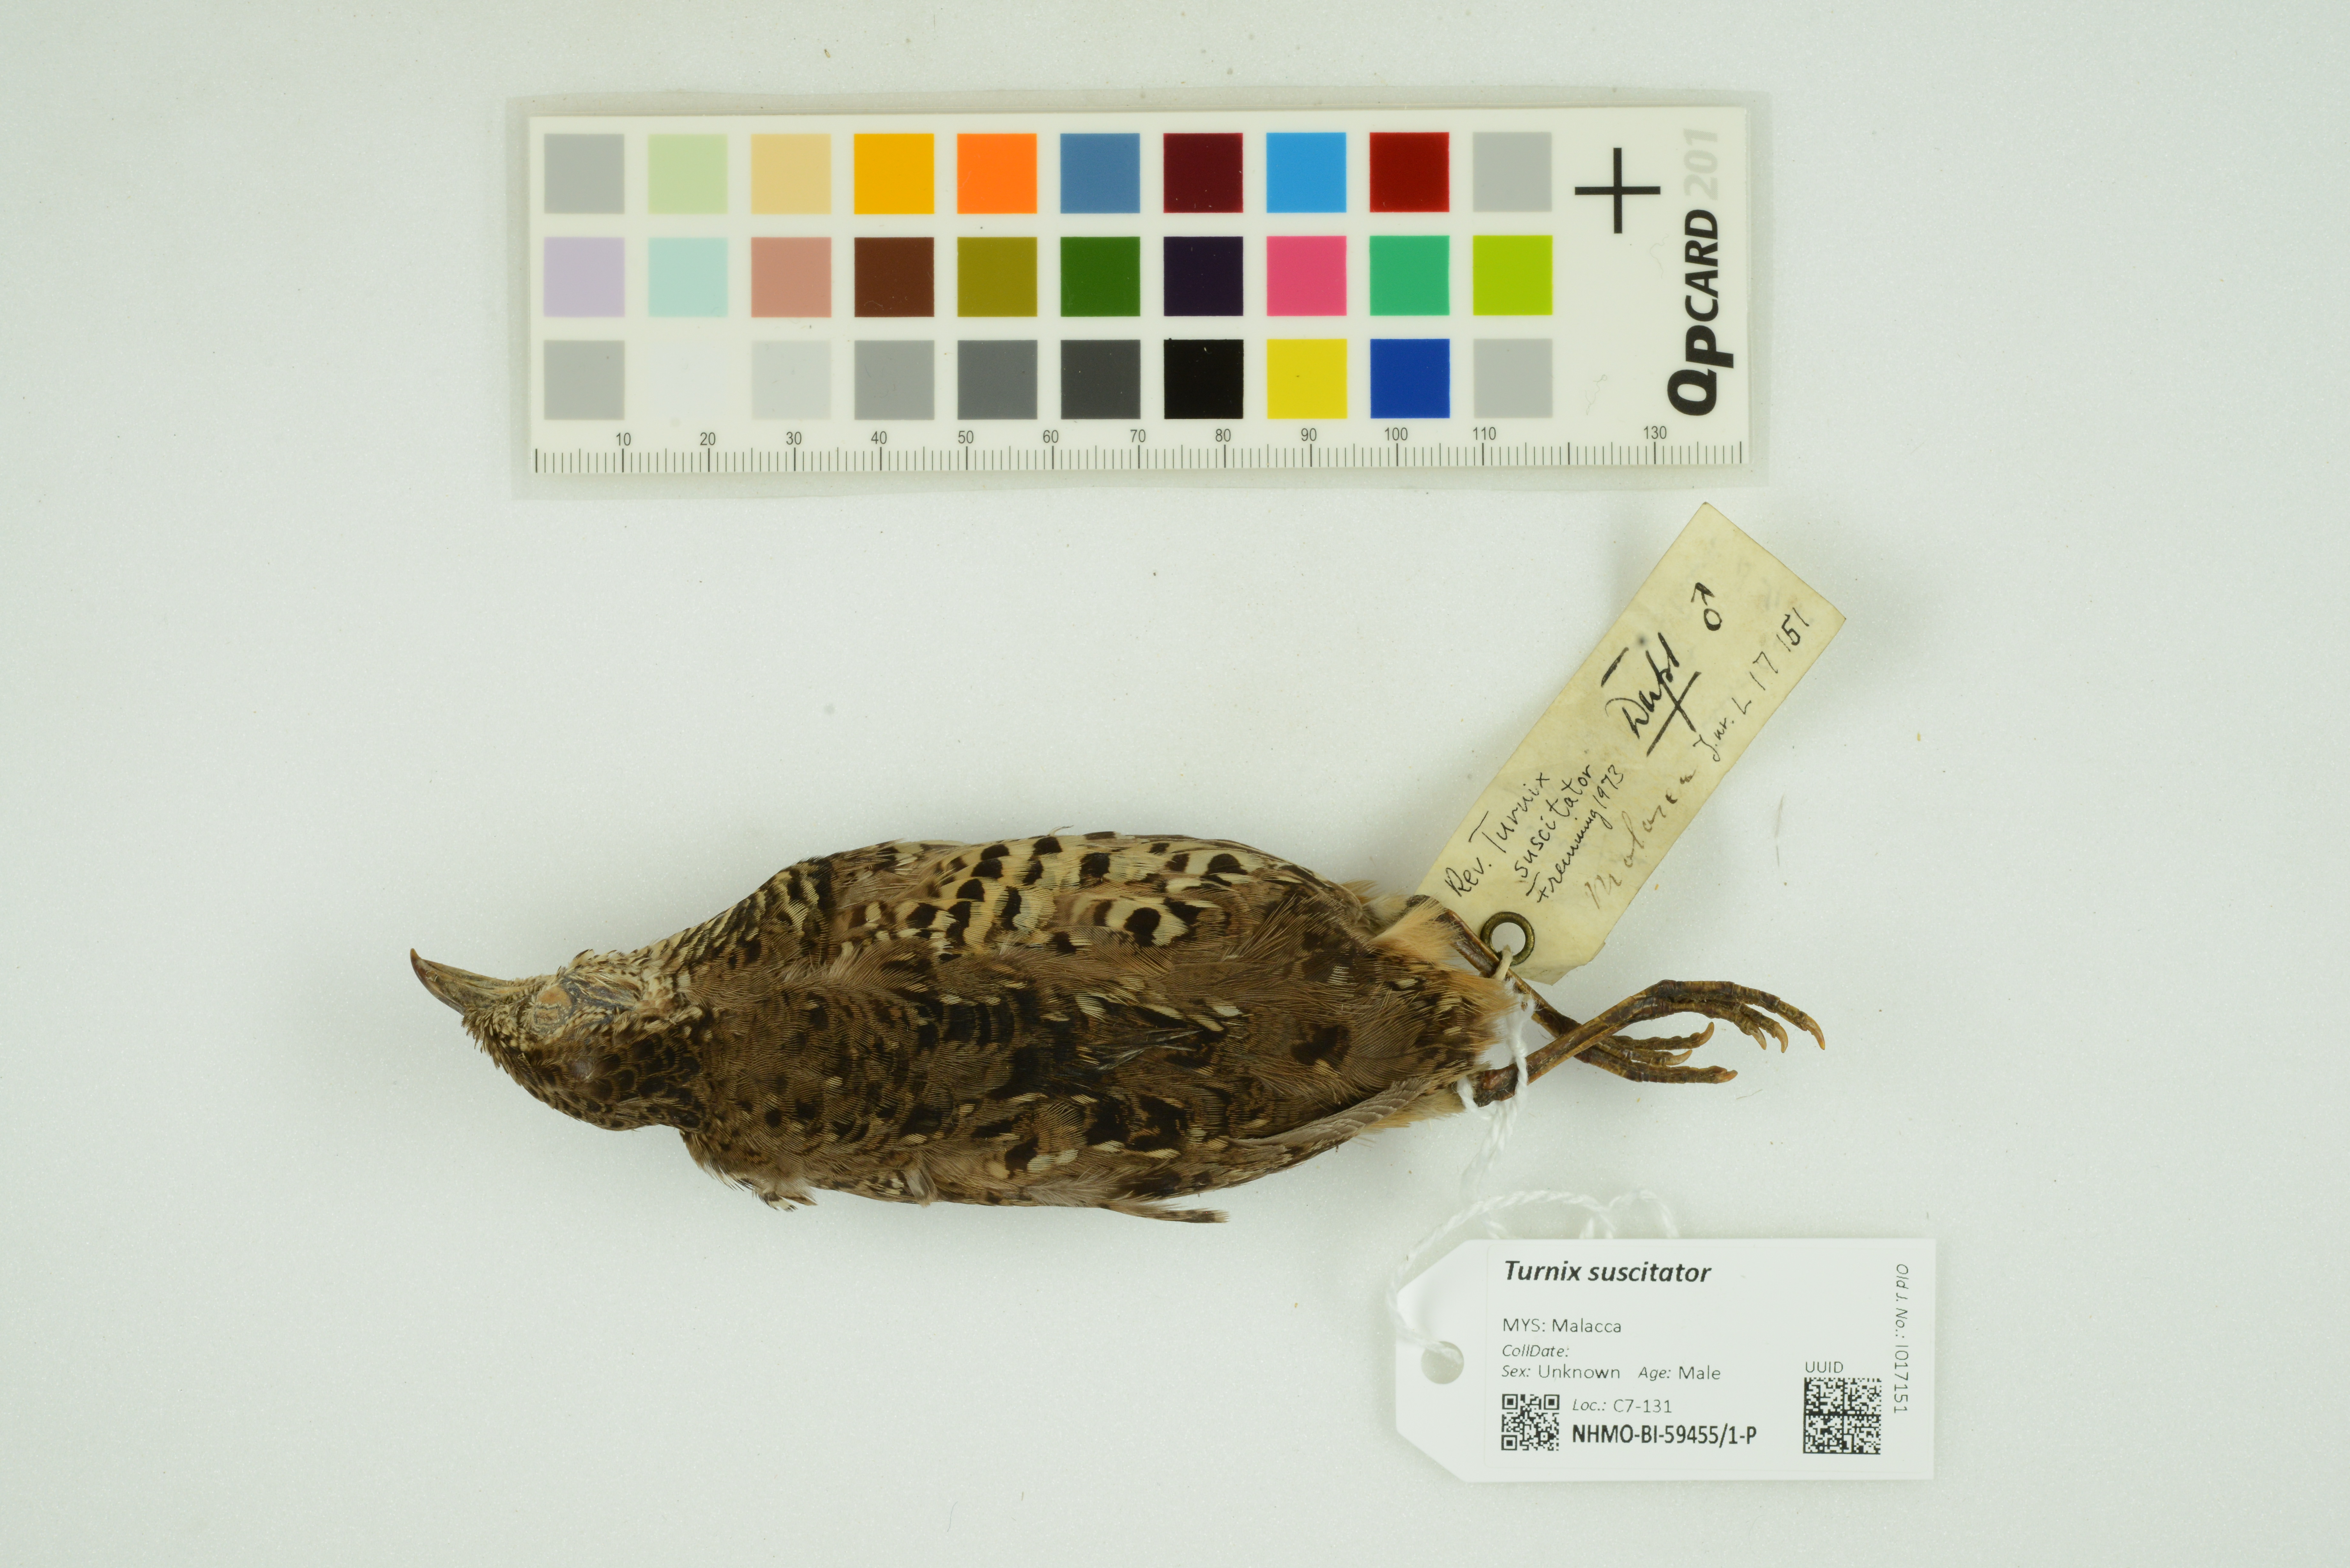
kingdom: Animalia
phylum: Chordata
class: Aves
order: Charadriiformes
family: Turnicidae
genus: Turnix
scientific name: Turnix suscitator
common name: Barred buttonquail
